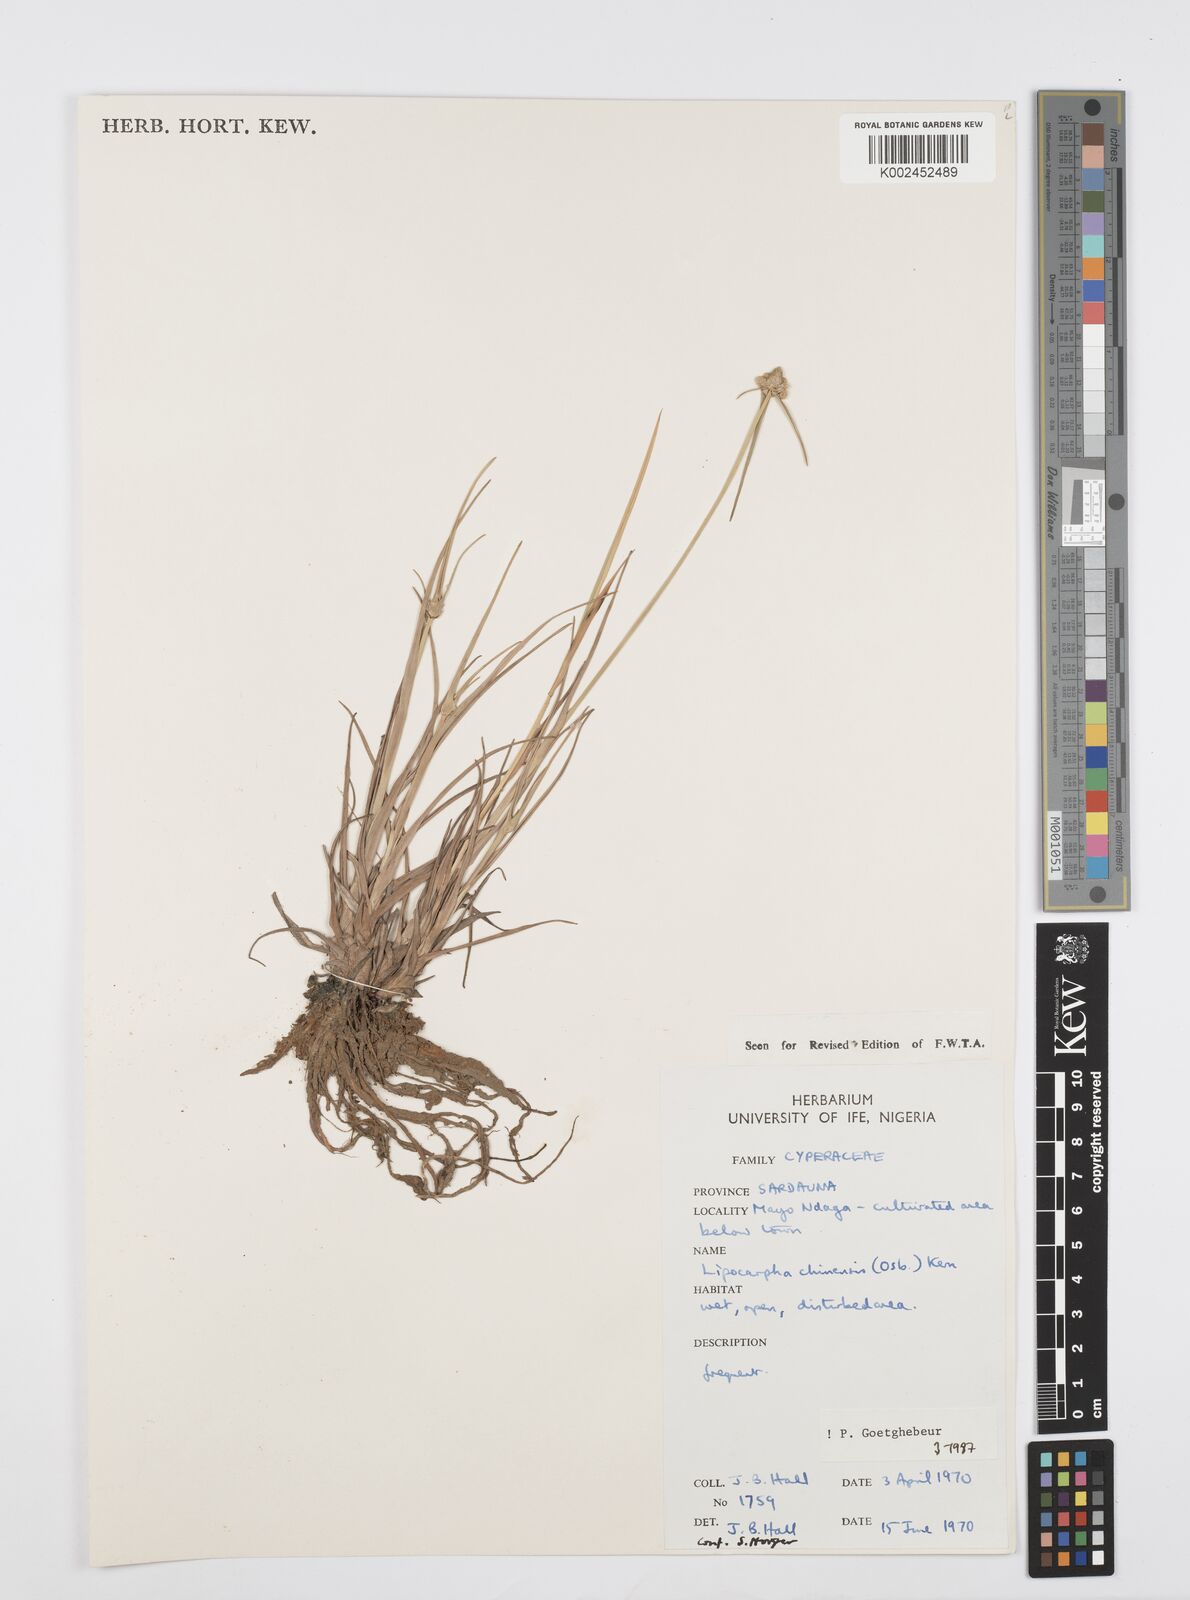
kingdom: Plantae
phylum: Tracheophyta
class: Liliopsida
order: Poales
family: Cyperaceae
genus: Cyperus
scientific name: Cyperus albescens
